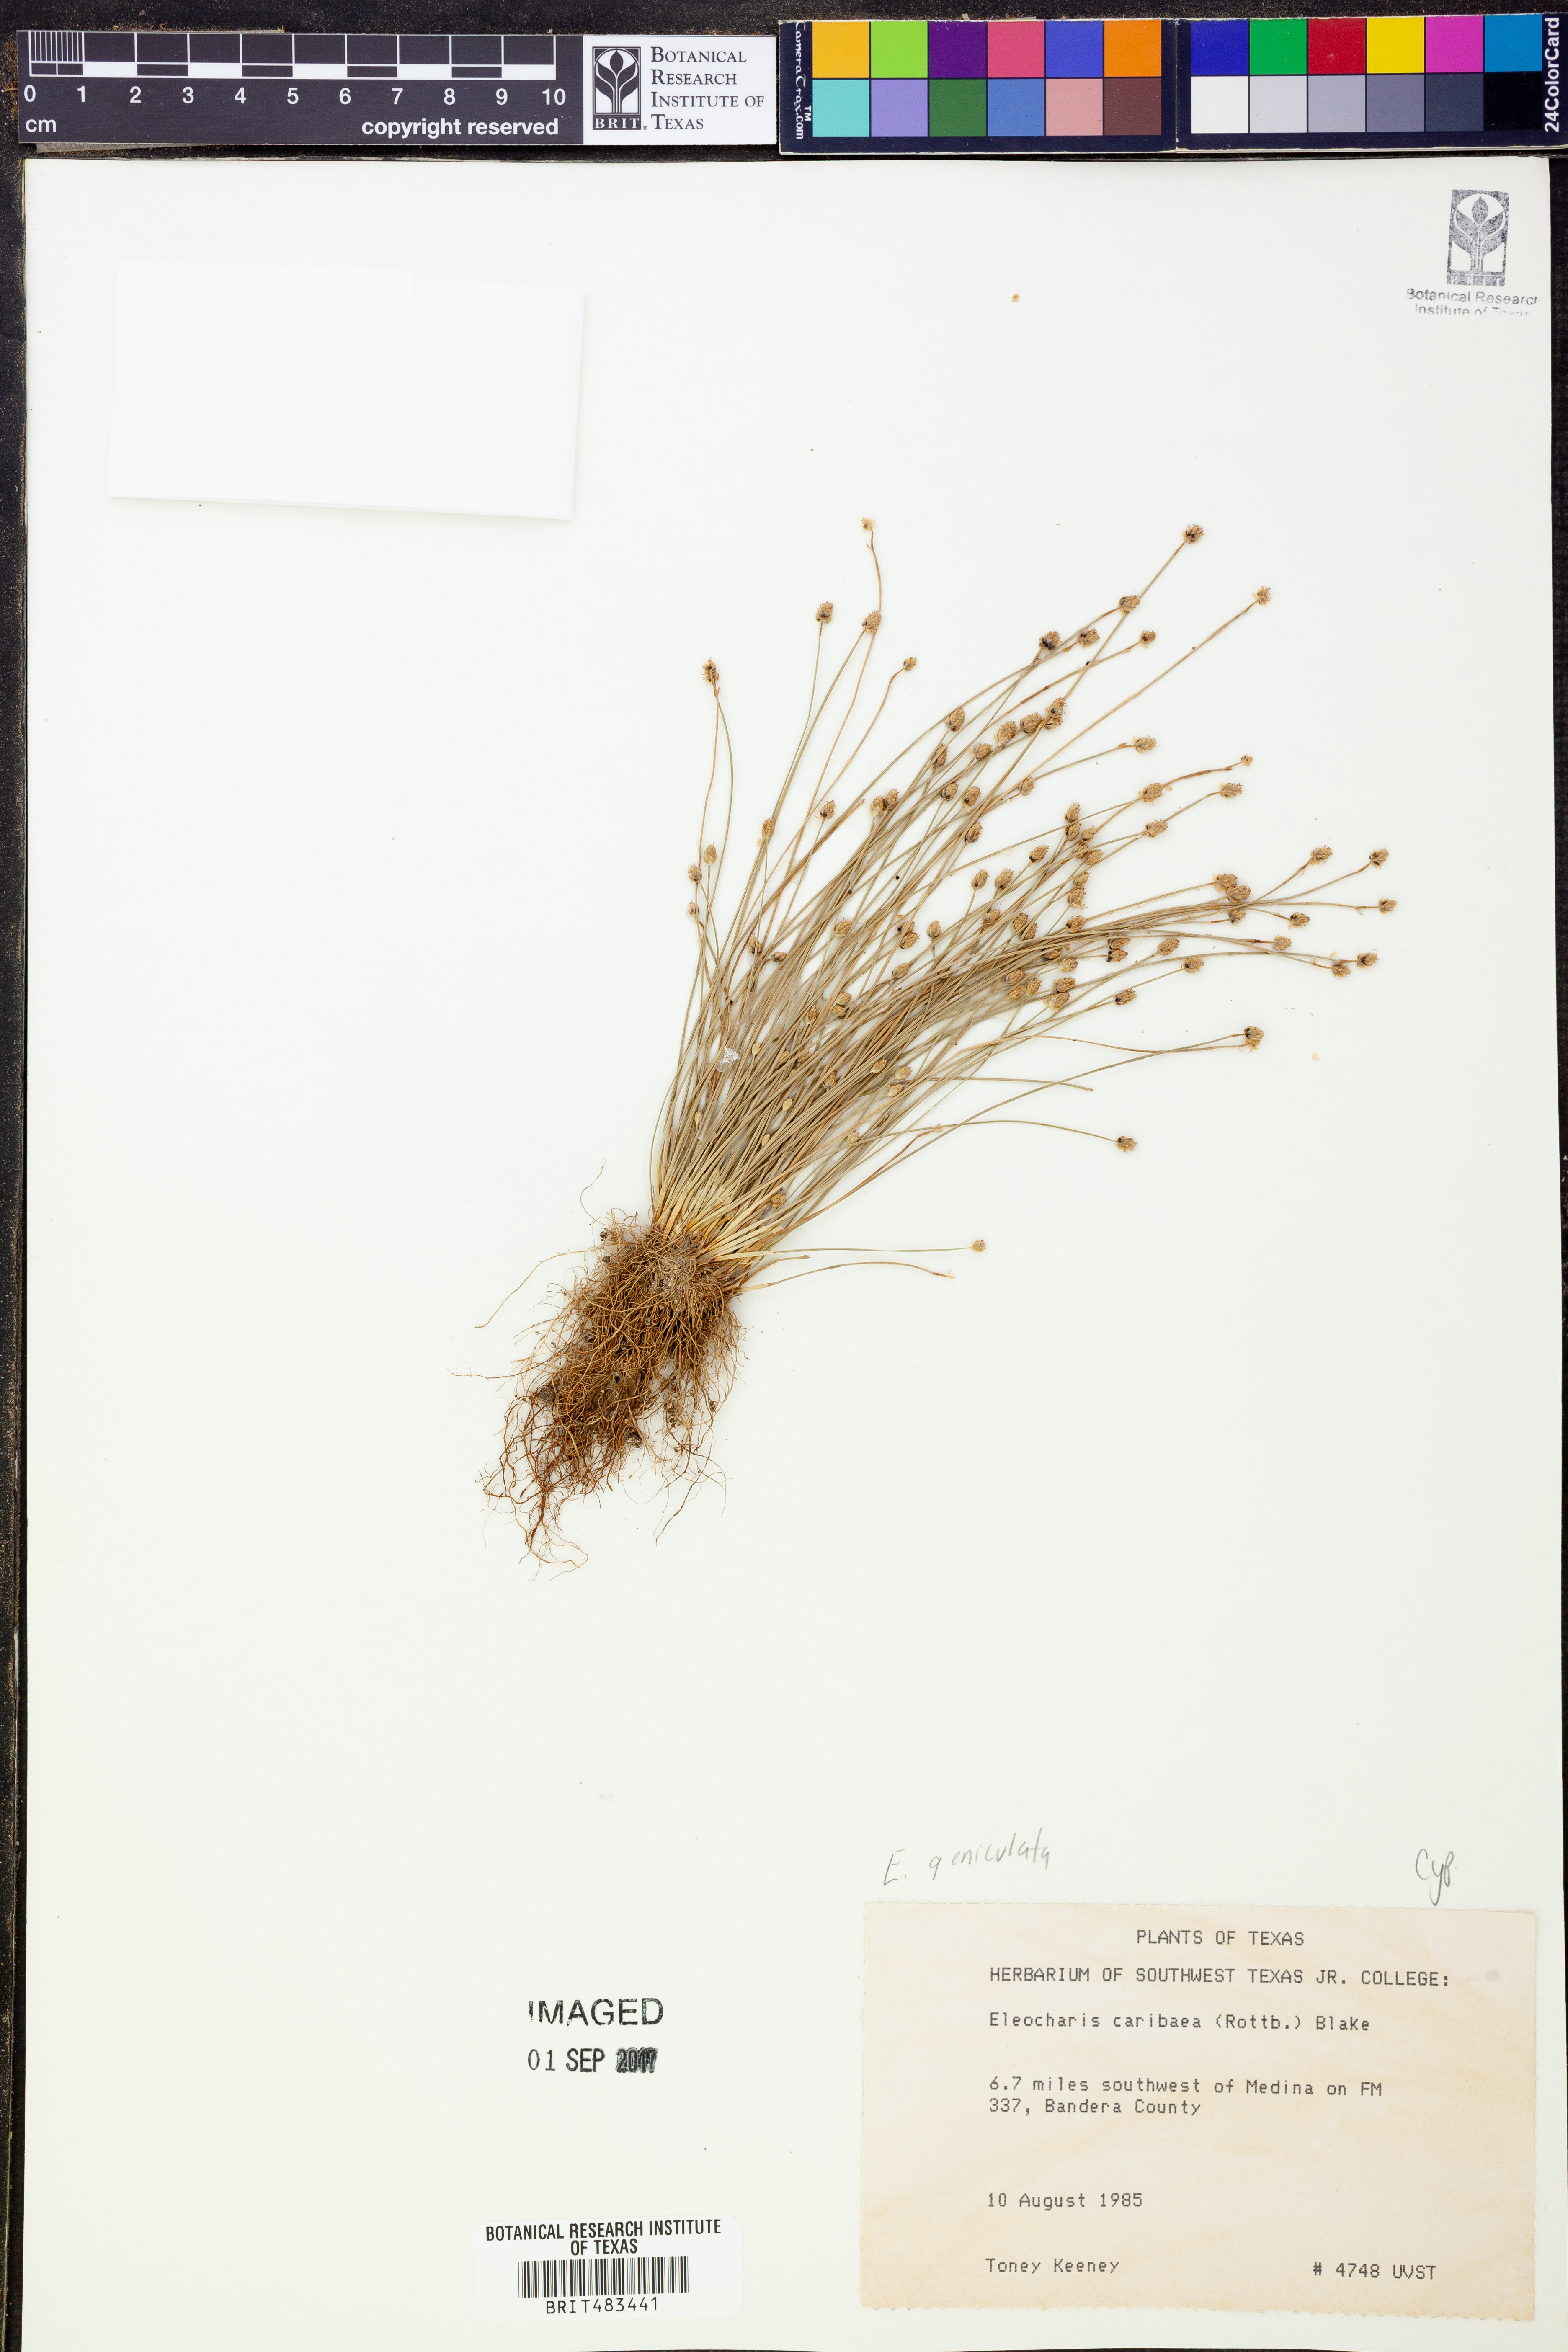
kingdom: Plantae
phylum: Tracheophyta
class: Liliopsida
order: Poales
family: Cyperaceae
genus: Eleocharis
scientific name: Eleocharis geniculata
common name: Canada spikesedge
